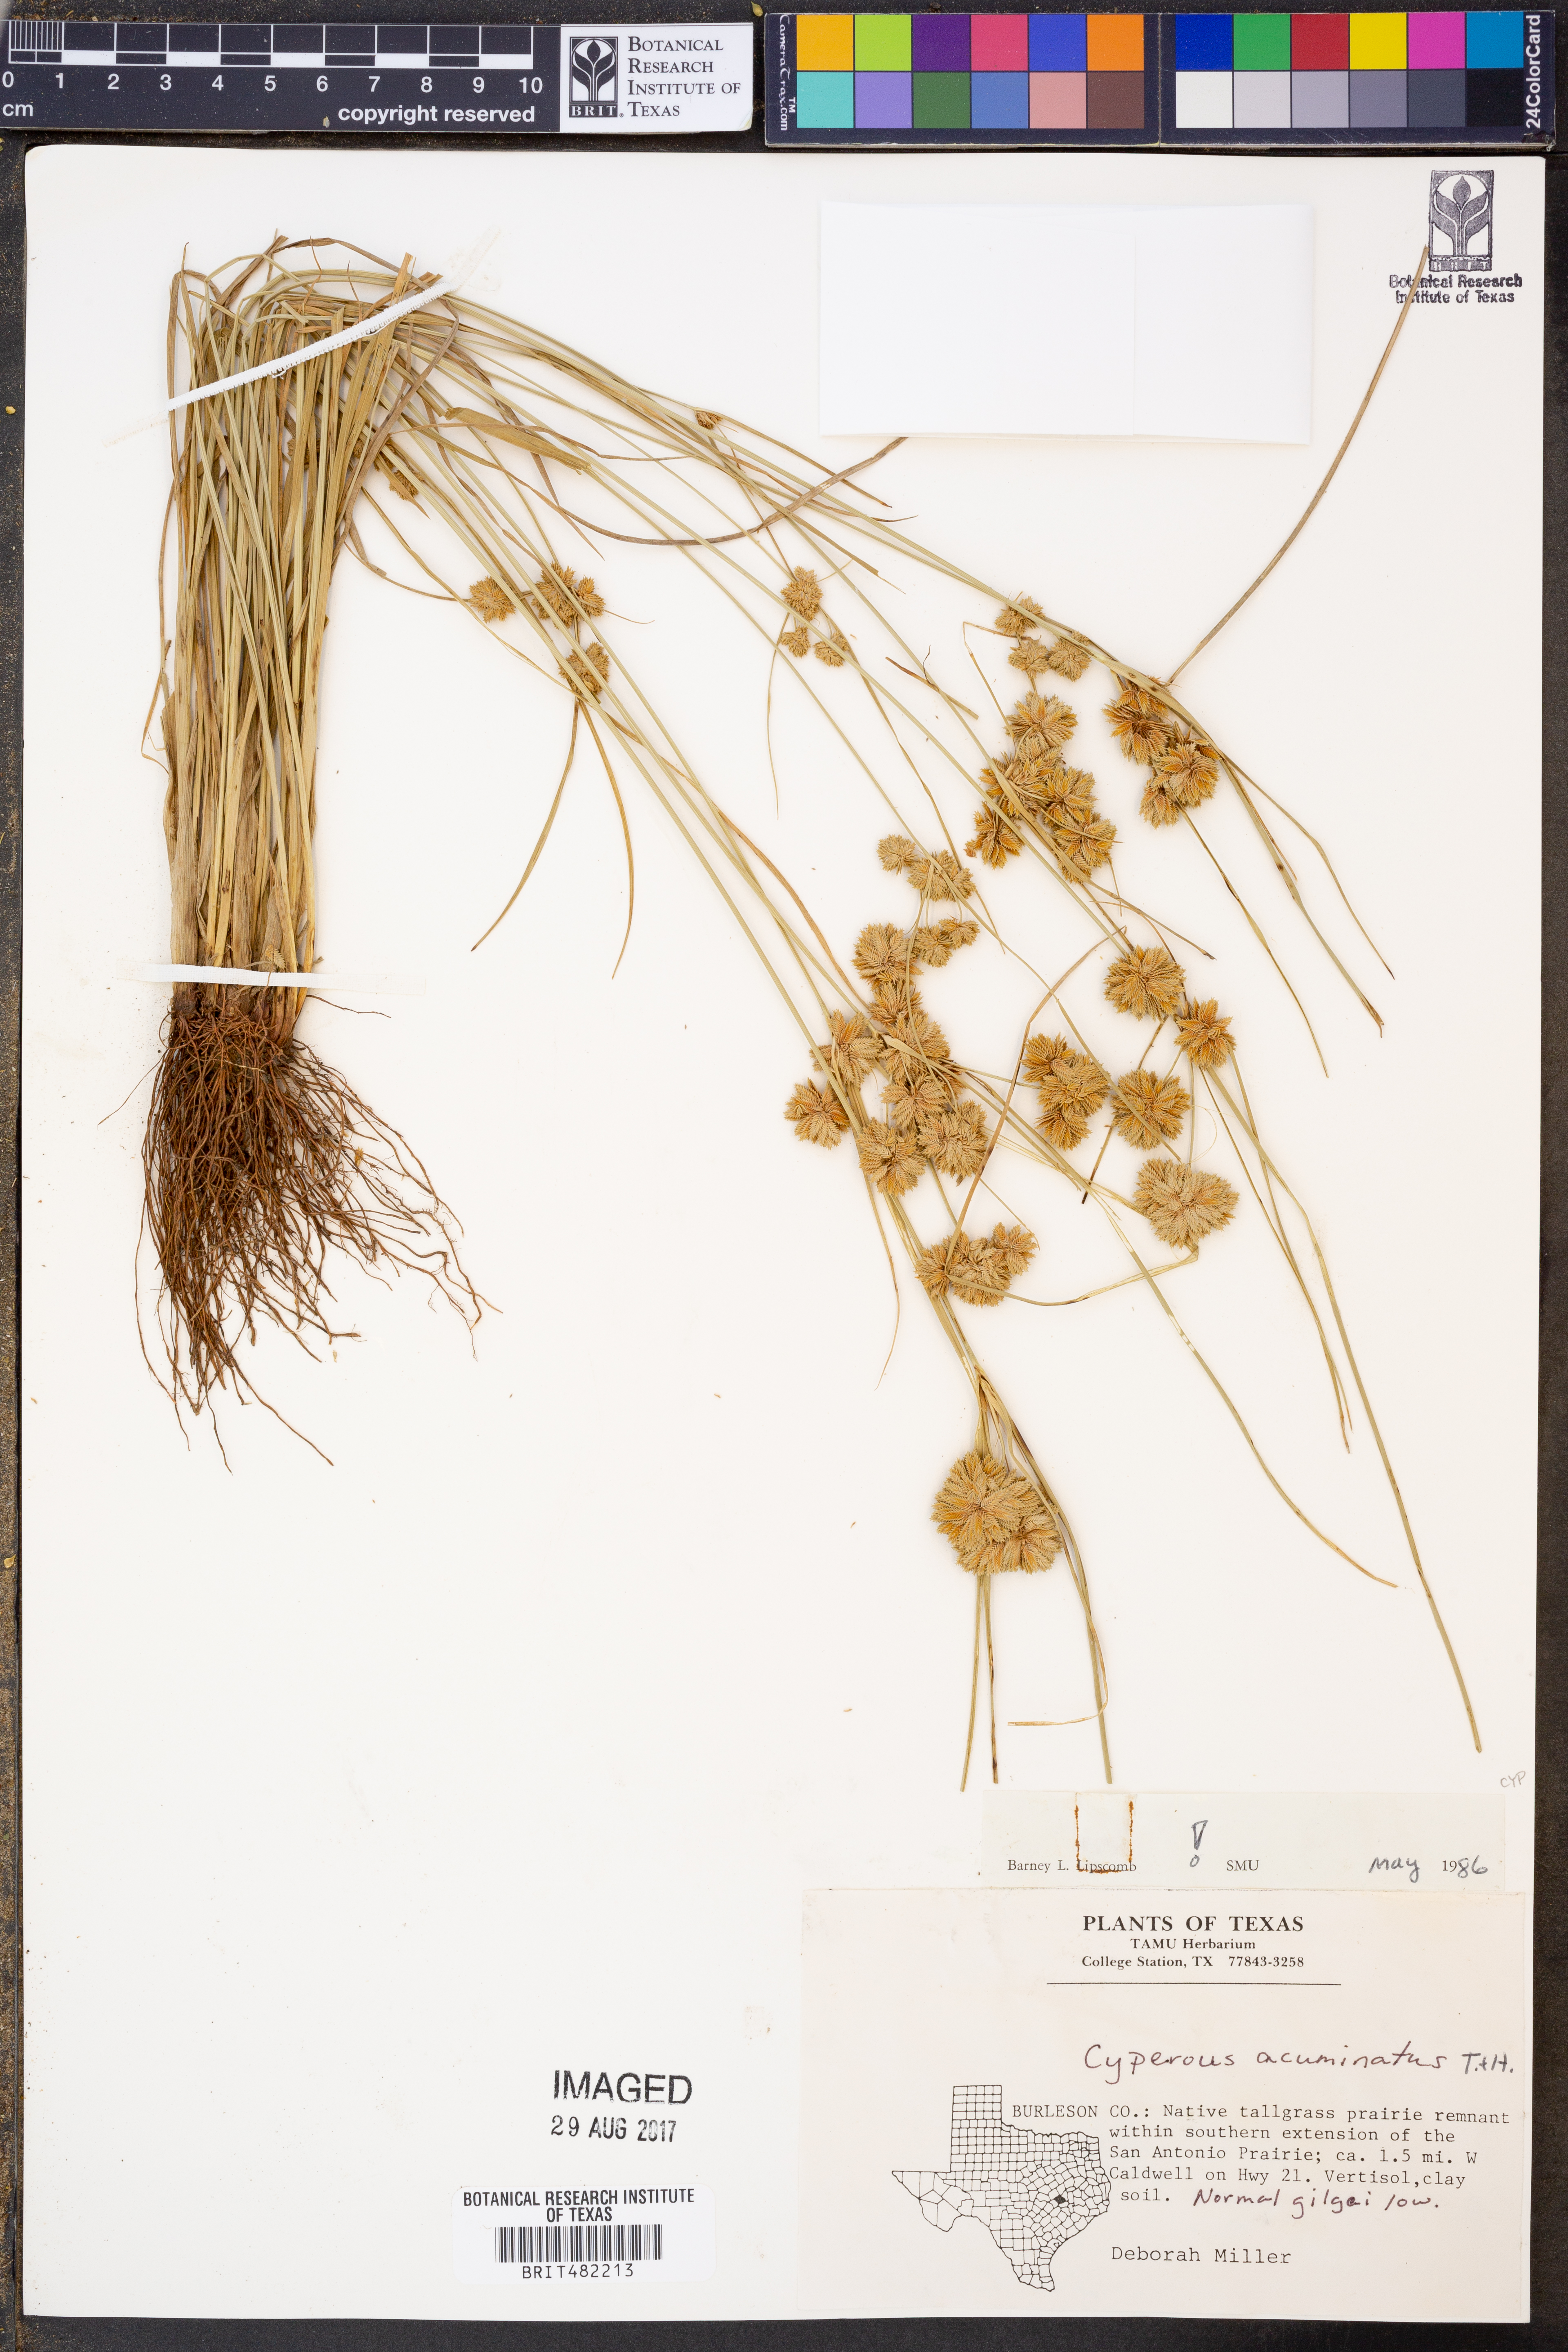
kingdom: Plantae
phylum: Tracheophyta
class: Liliopsida
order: Poales
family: Cyperaceae
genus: Cyperus
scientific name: Cyperus acuminatus
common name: Short-pointed cyperus
